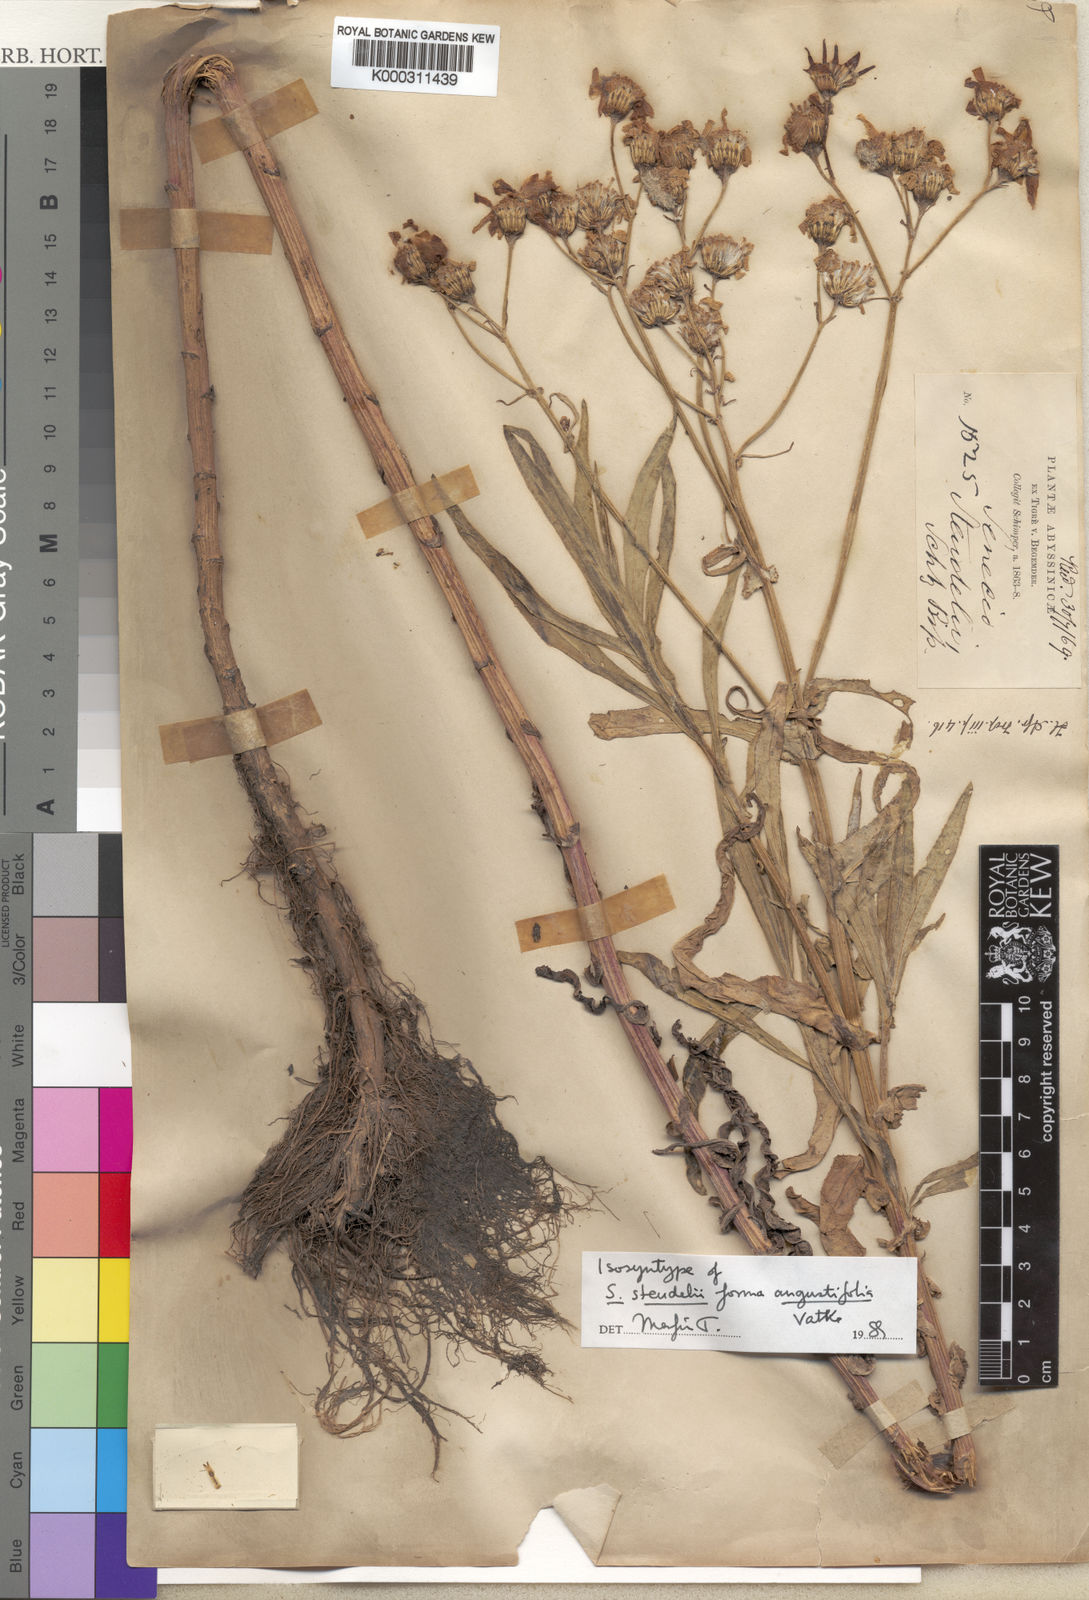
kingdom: Plantae
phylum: Tracheophyta
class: Magnoliopsida
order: Asterales
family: Asteraceae
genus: Senecio
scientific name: Senecio steudelii
